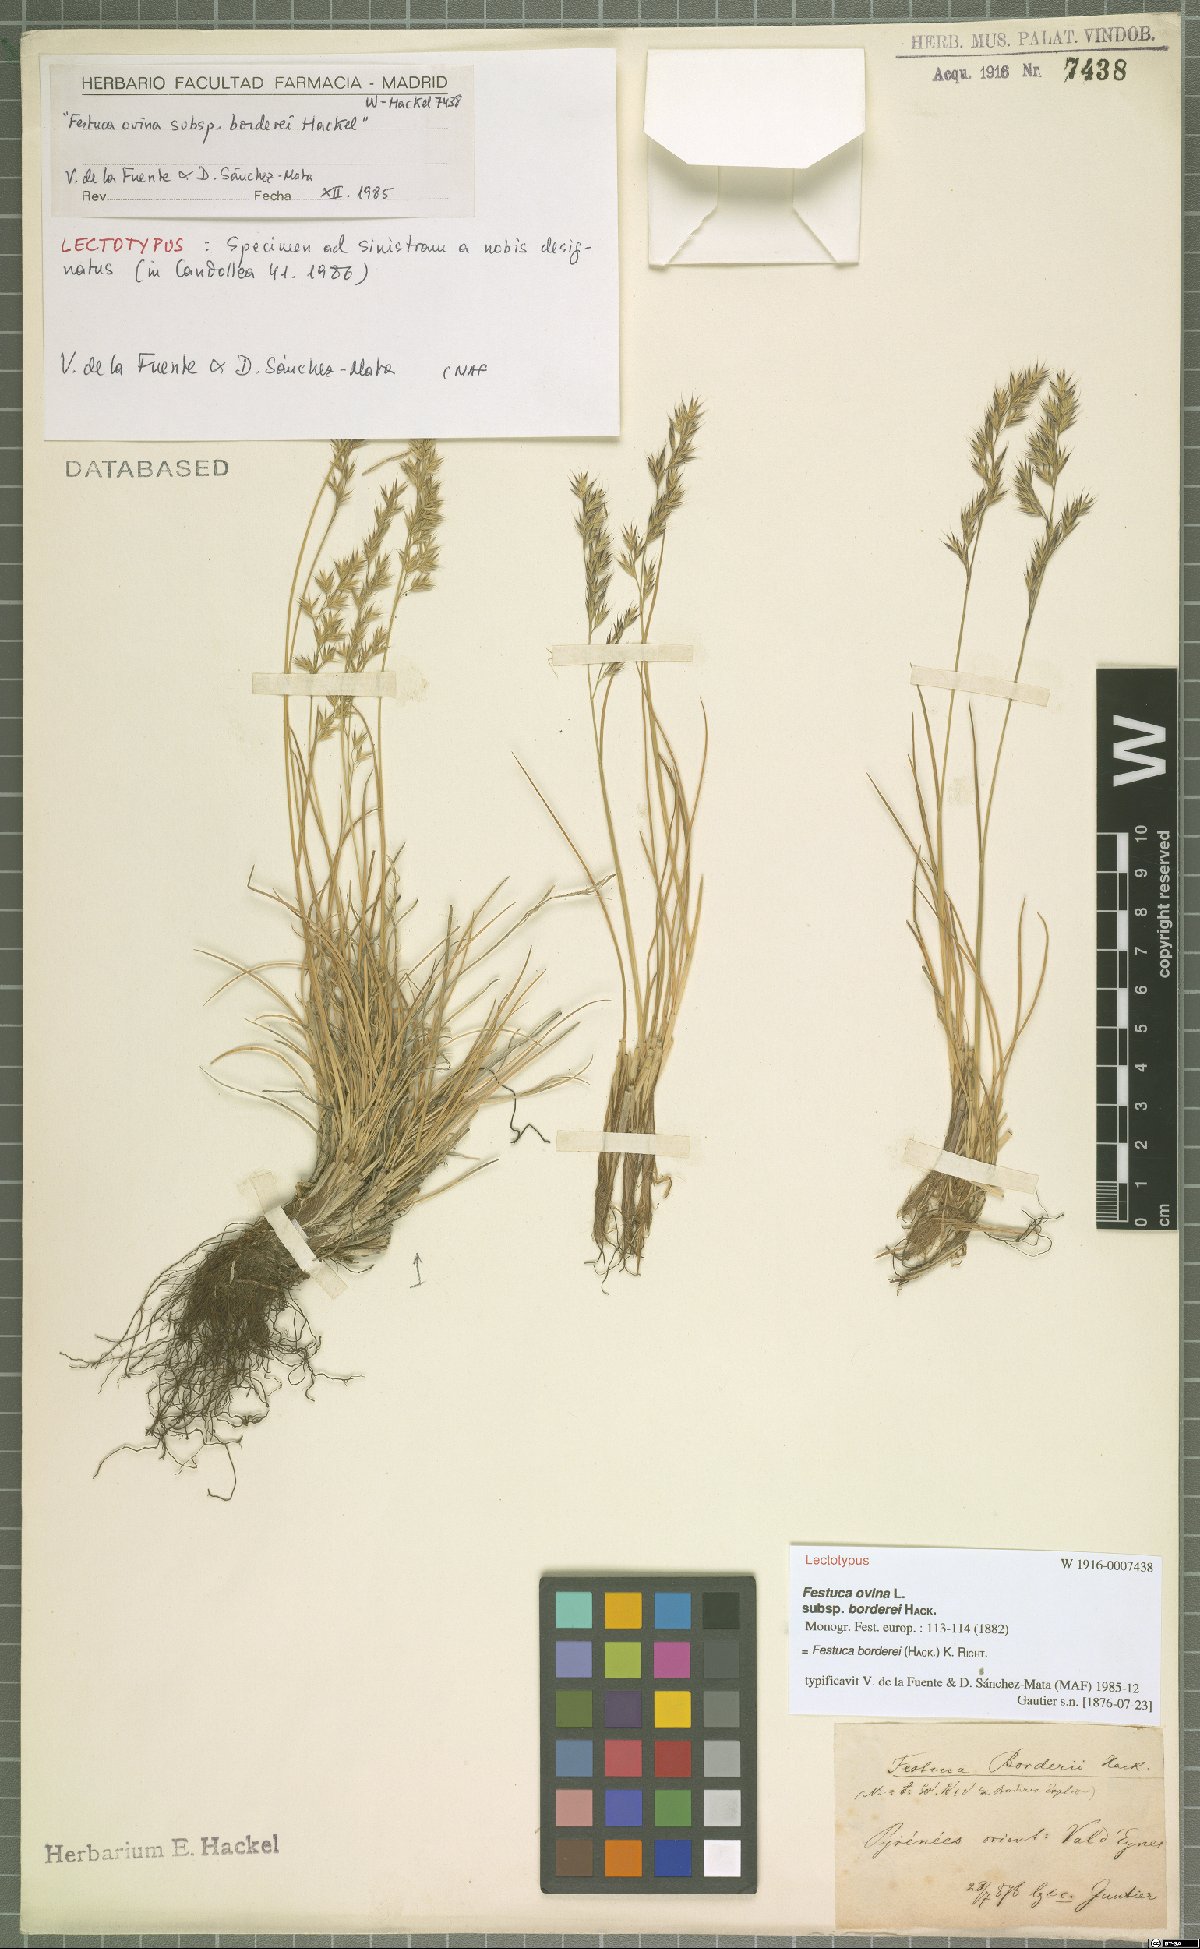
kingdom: Plantae
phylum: Tracheophyta
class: Liliopsida
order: Poales
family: Poaceae
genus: Festuca
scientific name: Festuca borderii
